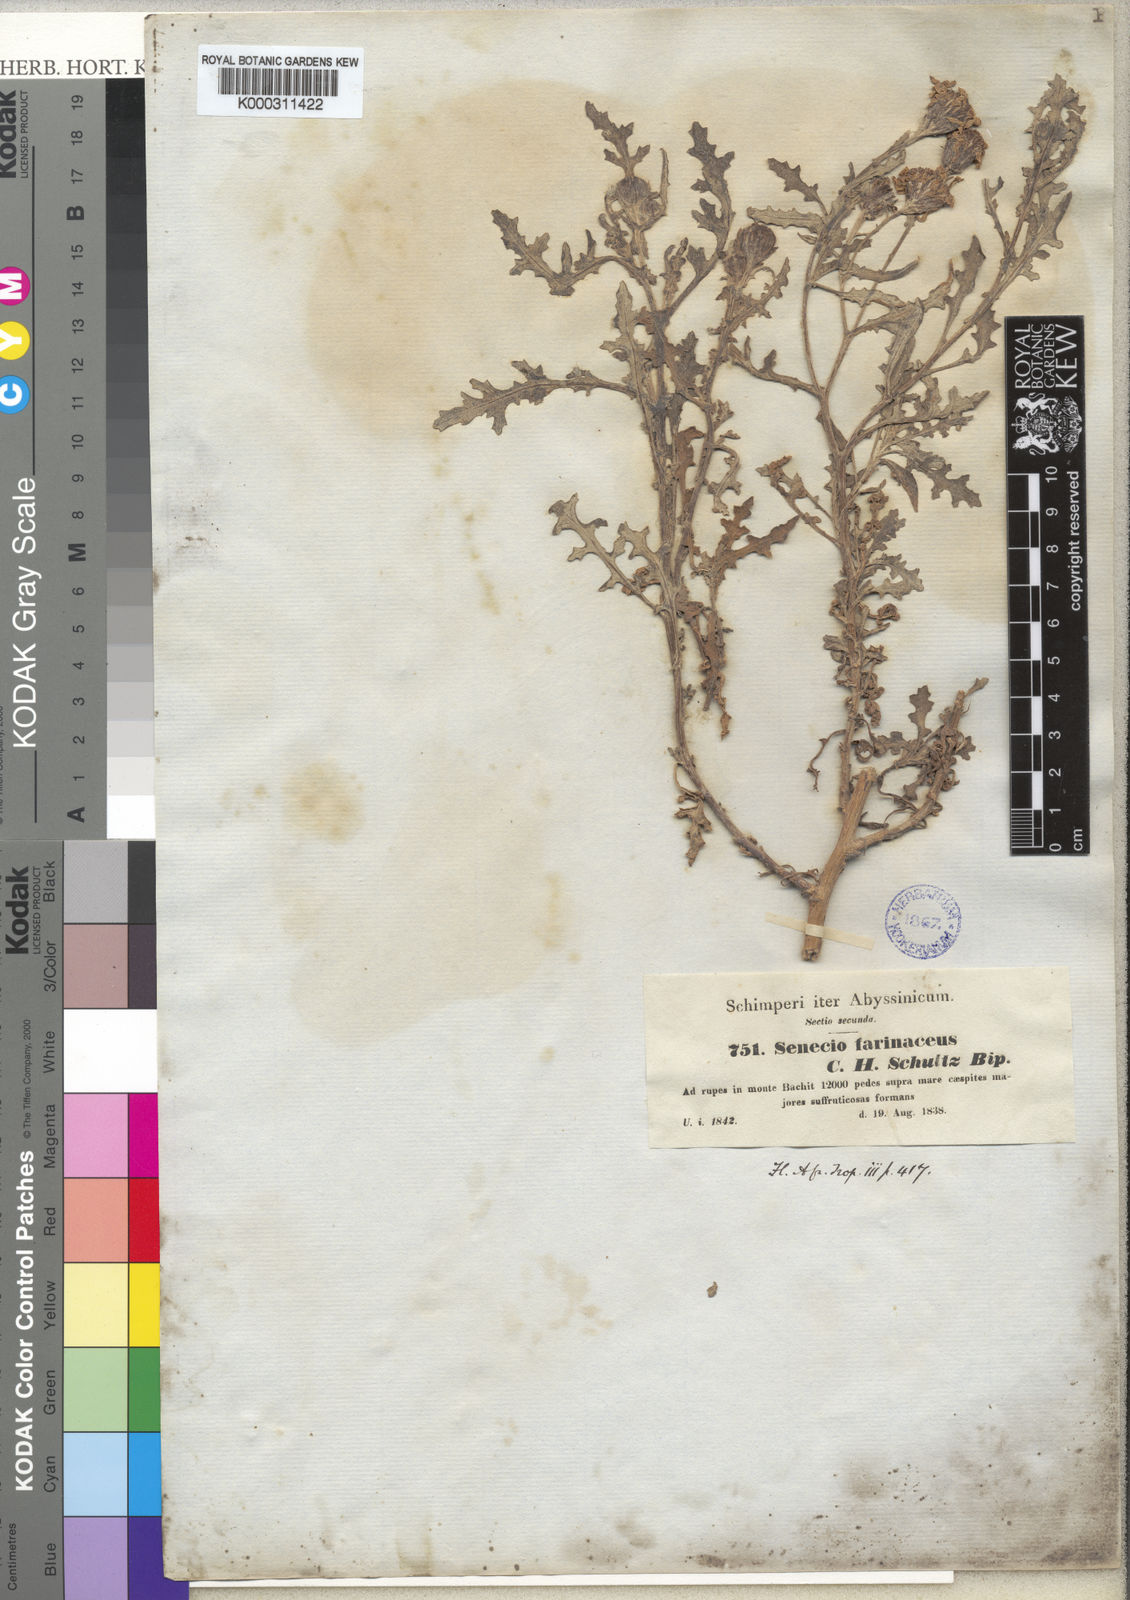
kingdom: Plantae
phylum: Tracheophyta
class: Magnoliopsida
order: Asterales
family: Asteraceae
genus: Senecio
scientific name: Senecio farinaceus
